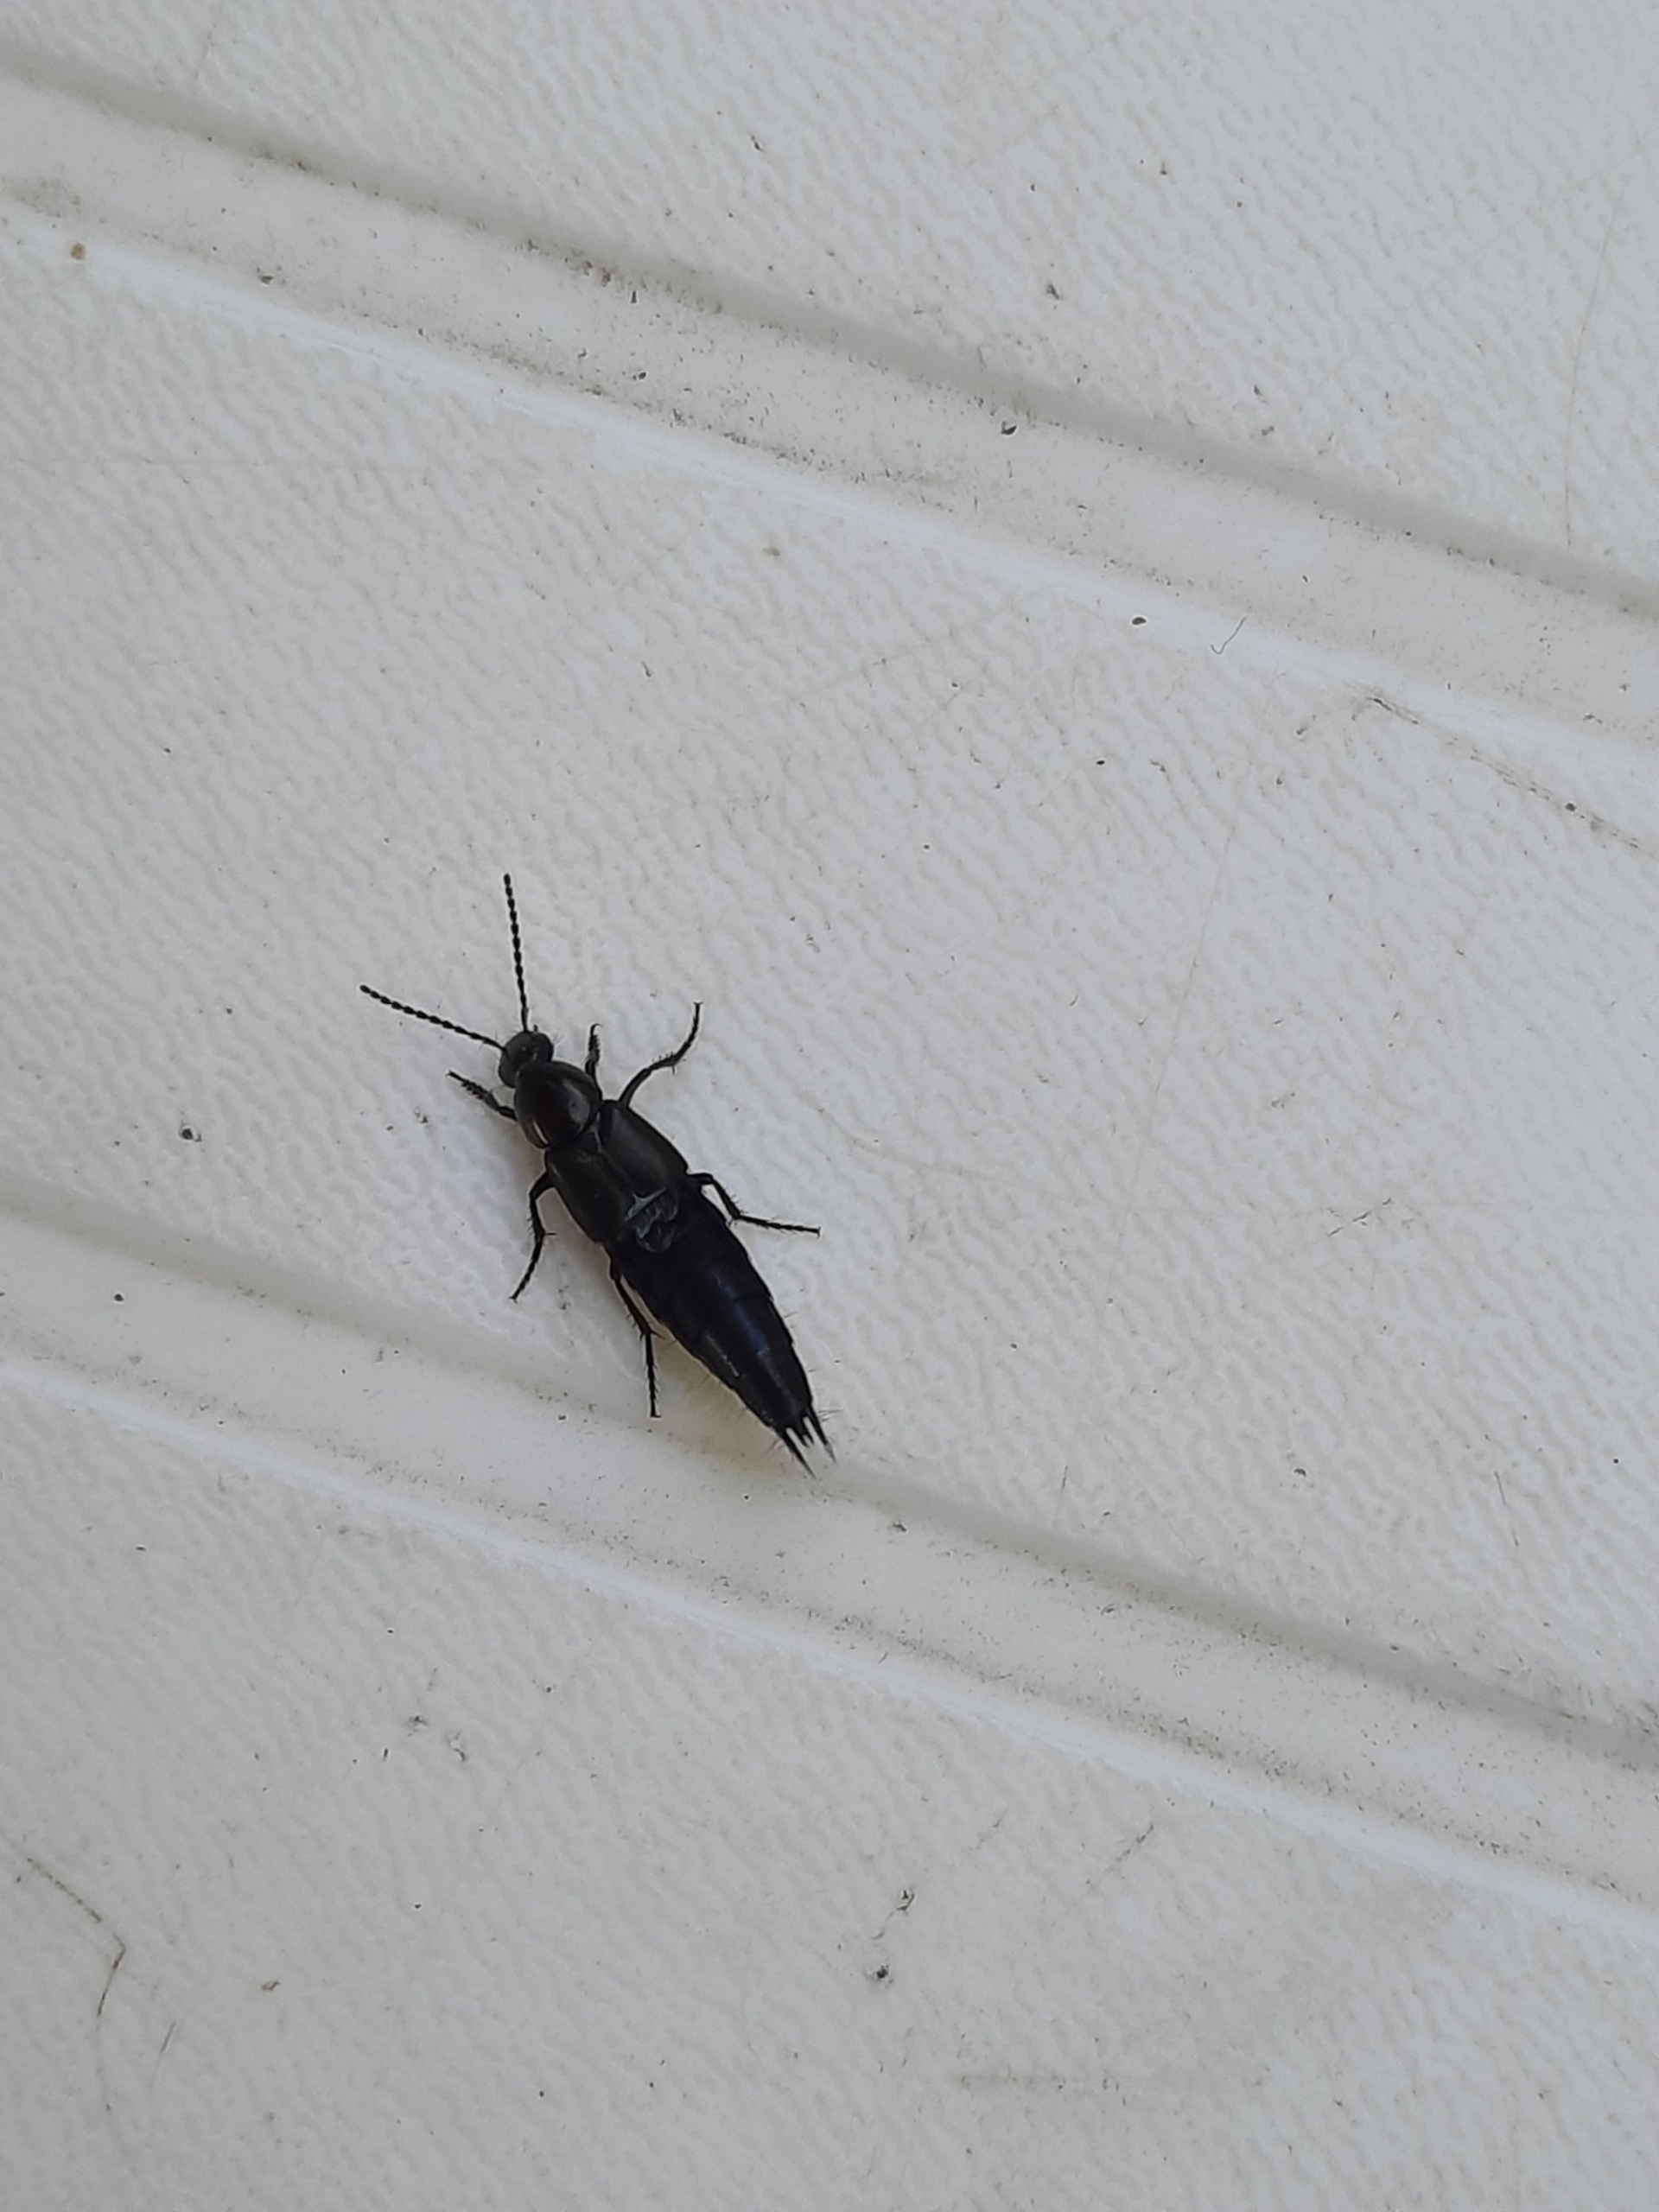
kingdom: Animalia
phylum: Arthropoda
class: Insecta
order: Coleoptera
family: Staphylinidae
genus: Philonthus
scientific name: Philonthus
